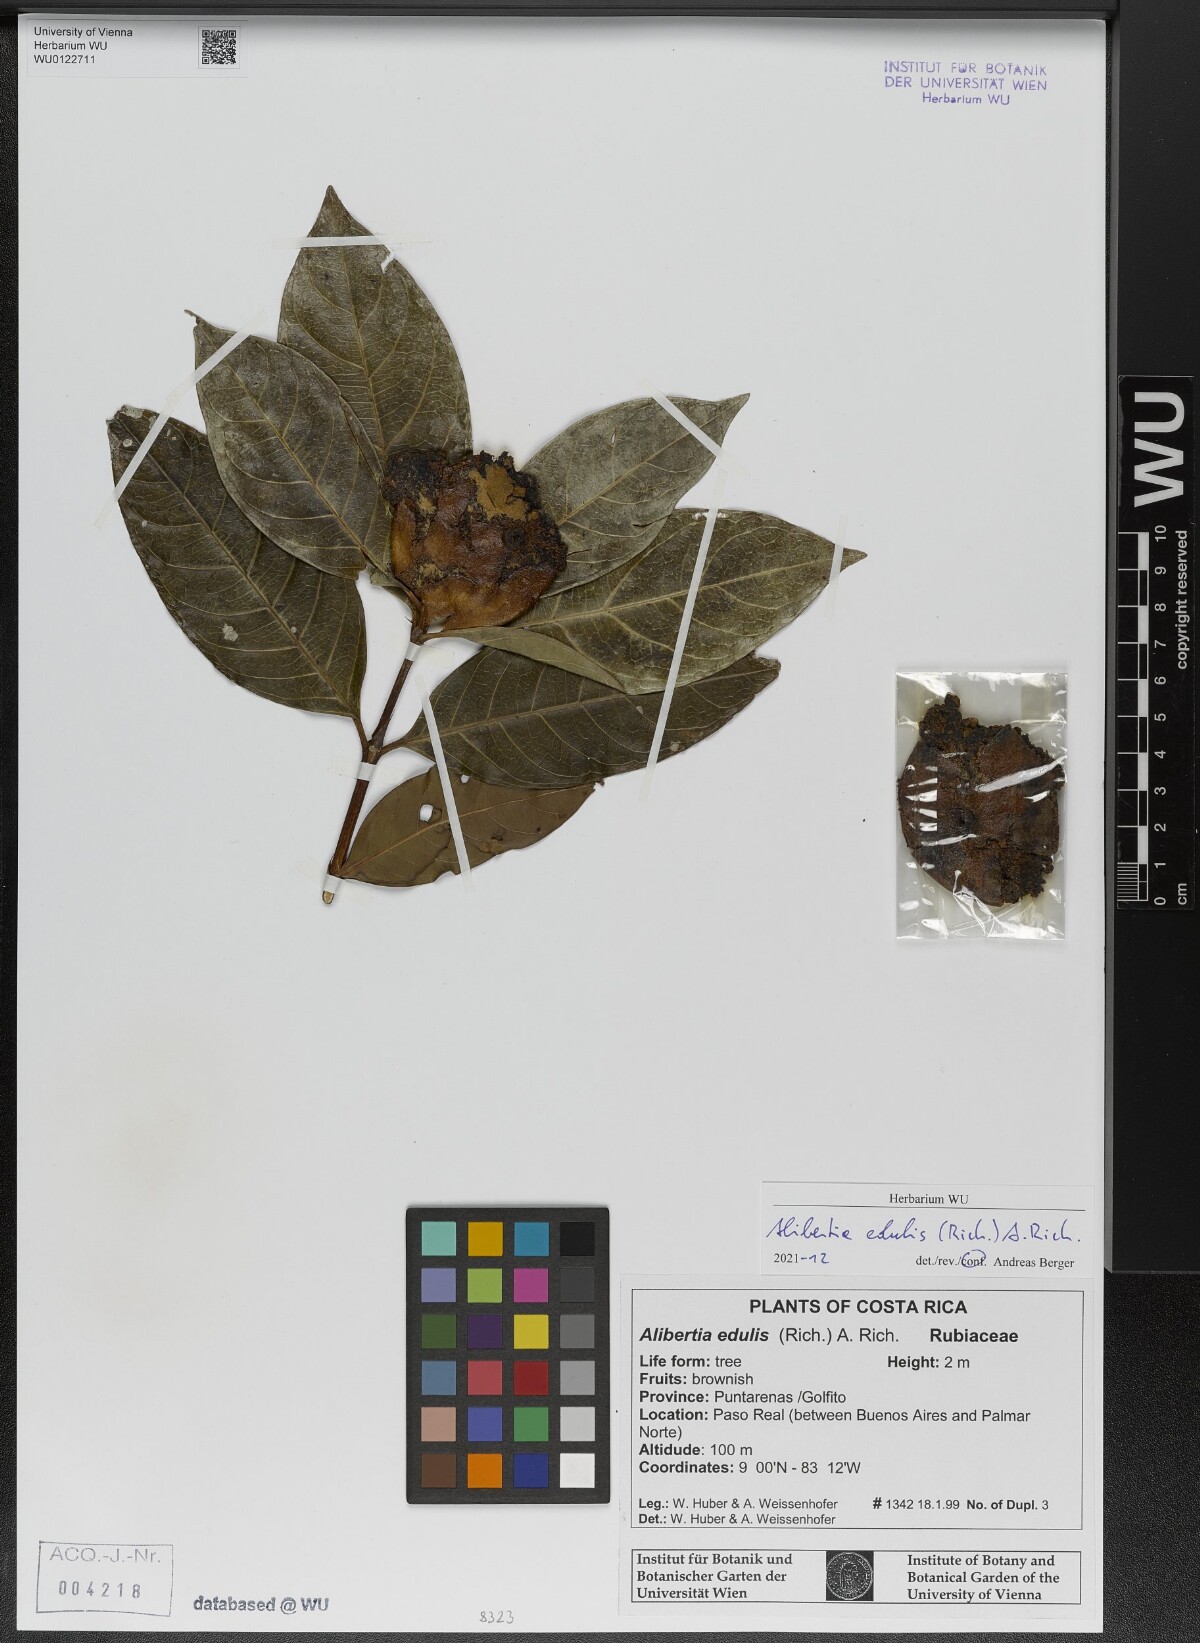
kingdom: Plantae
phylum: Tracheophyta
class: Magnoliopsida
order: Gentianales
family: Rubiaceae
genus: Alibertia
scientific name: Alibertia edulis
